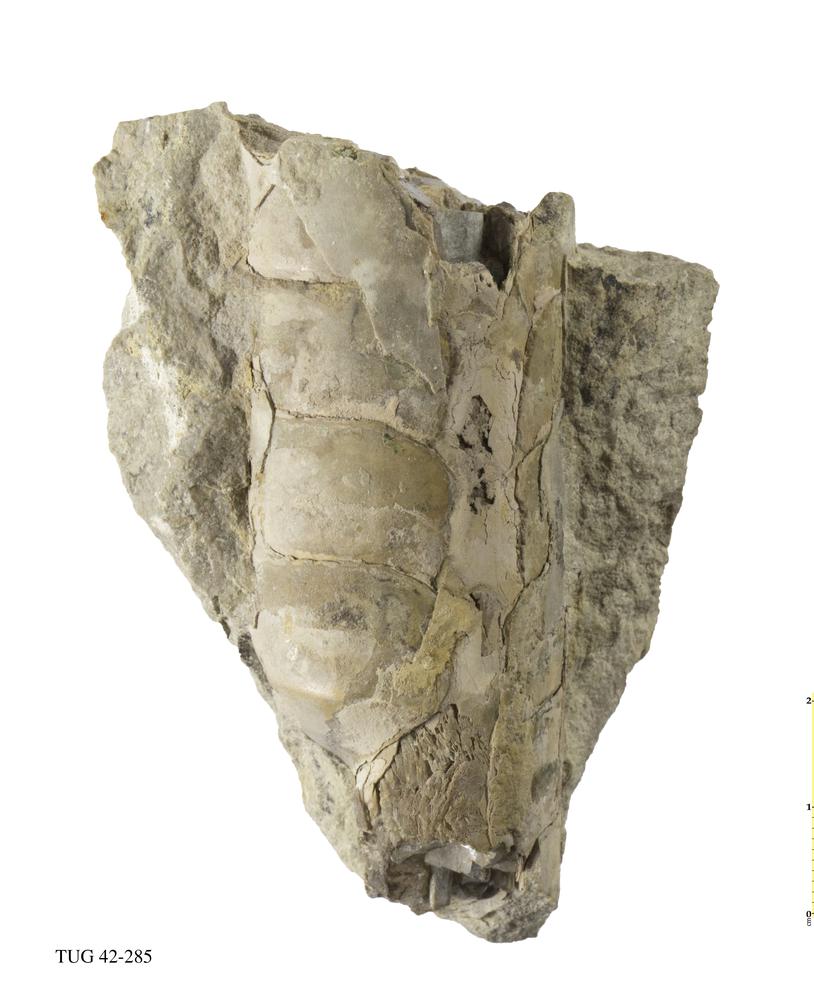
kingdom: Animalia
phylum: Mollusca
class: Cephalopoda
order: Orthocerida
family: Orthoceratidae
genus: Orthoceras
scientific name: Orthoceras
